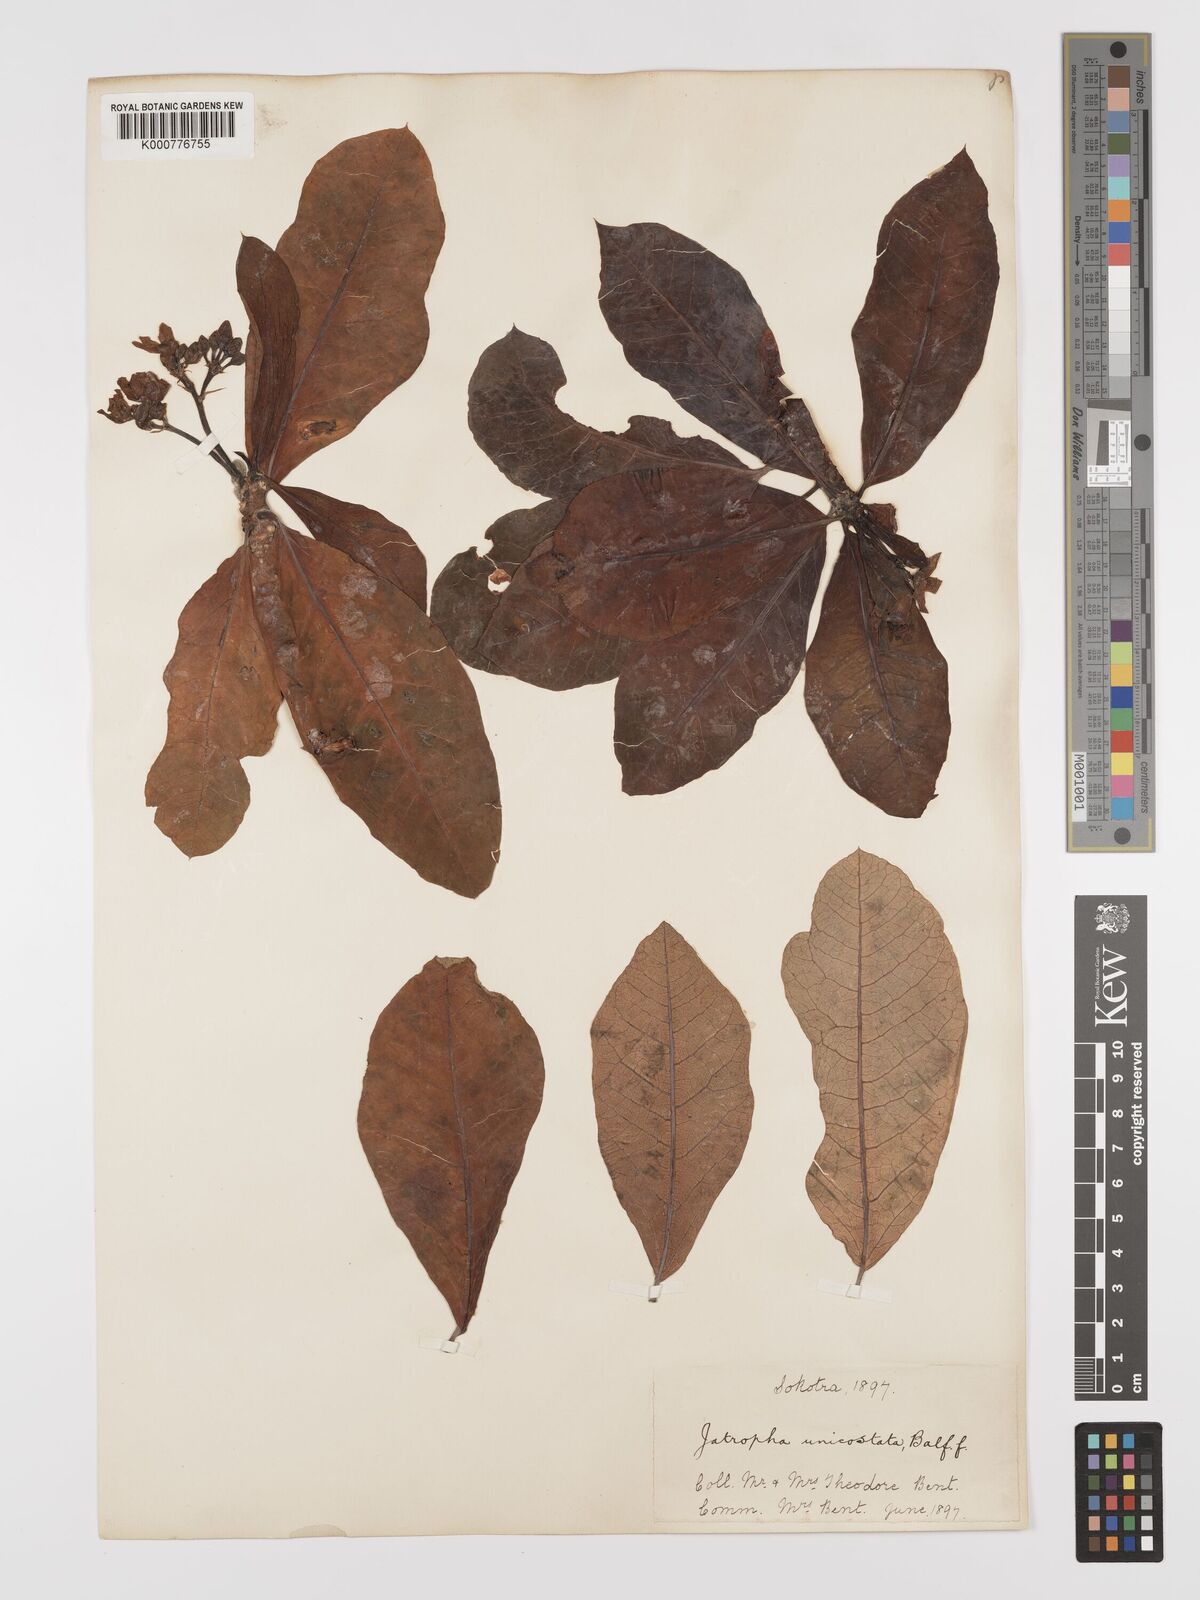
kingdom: Plantae
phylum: Tracheophyta
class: Magnoliopsida
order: Malpighiales
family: Euphorbiaceae
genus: Jatropha
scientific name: Jatropha unicostata
